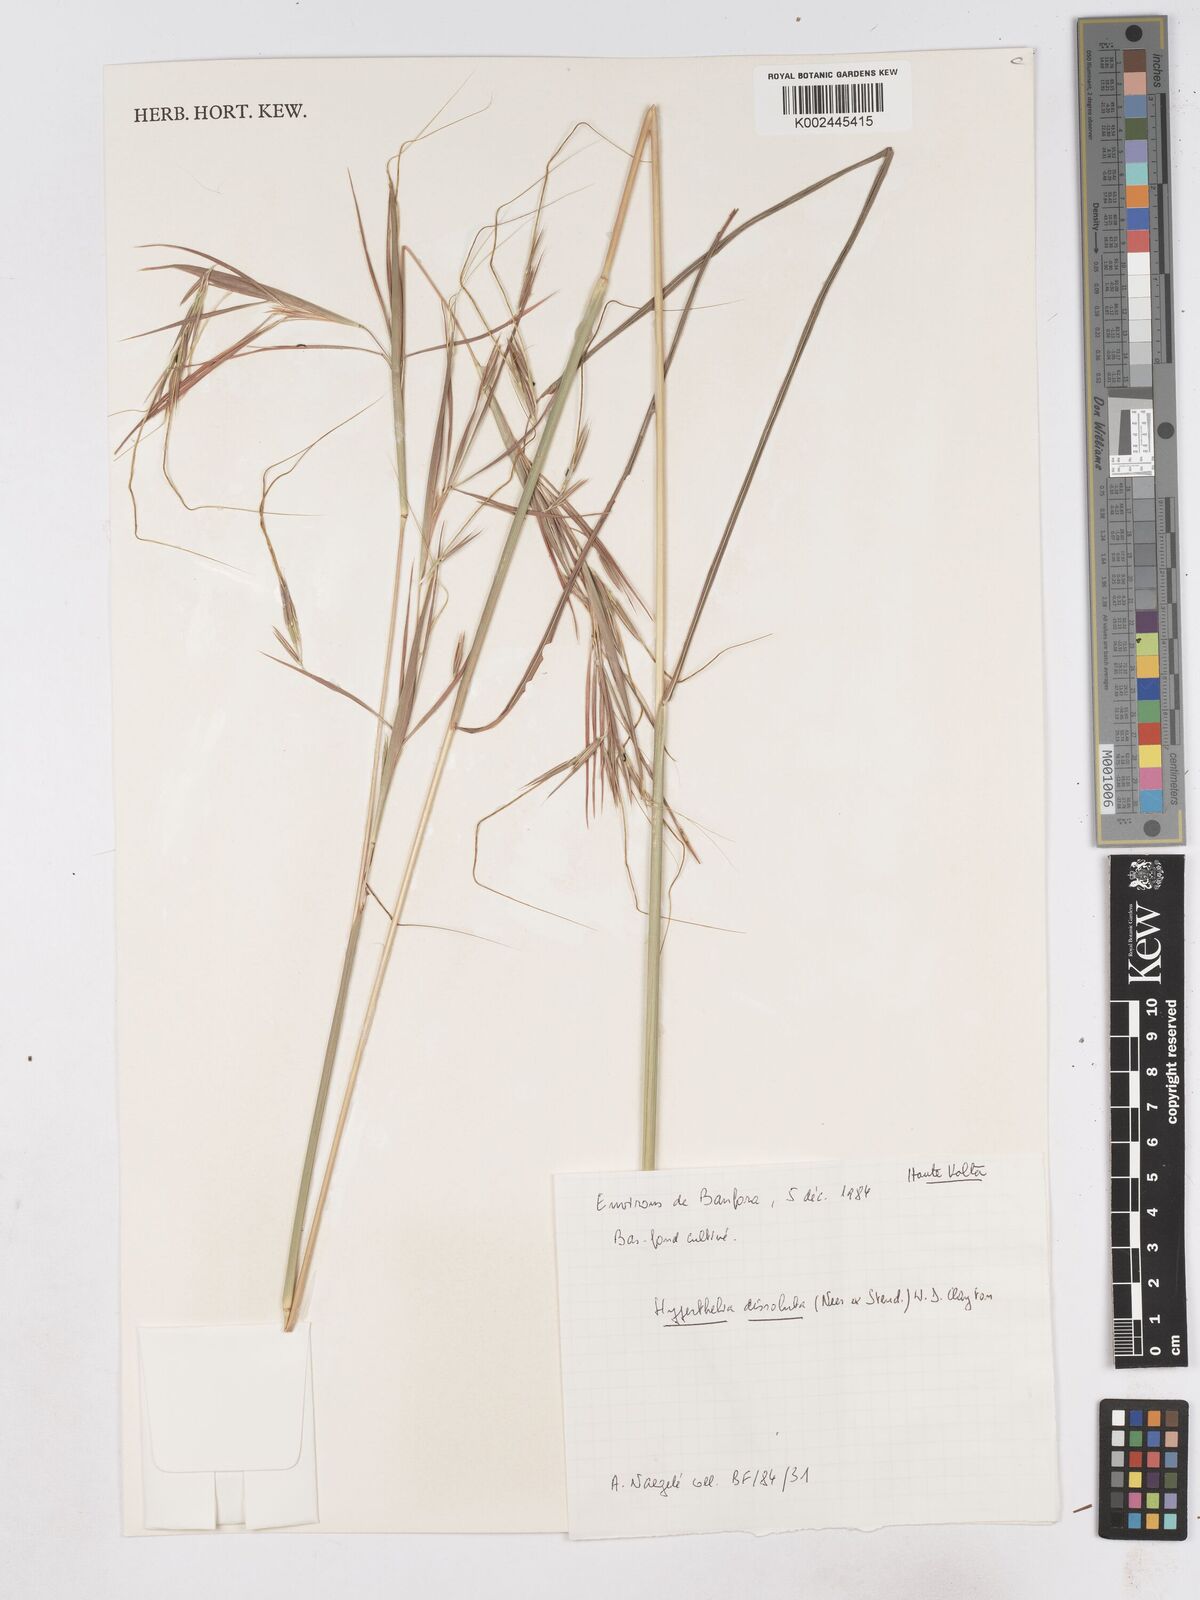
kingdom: Plantae
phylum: Tracheophyta
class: Liliopsida
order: Poales
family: Poaceae
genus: Hyperthelia
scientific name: Hyperthelia dissoluta
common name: Yellow thatching grass
